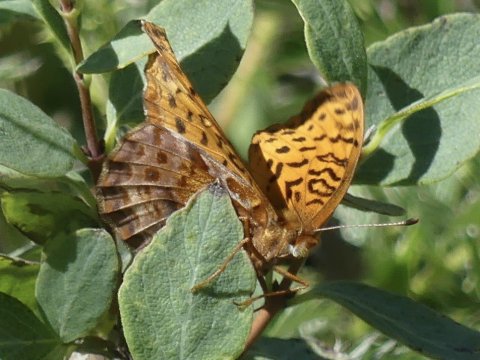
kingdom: Animalia
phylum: Arthropoda
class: Insecta
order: Lepidoptera
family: Nymphalidae
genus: Clossiana
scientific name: Clossiana toddi
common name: Meadow Fritillary
